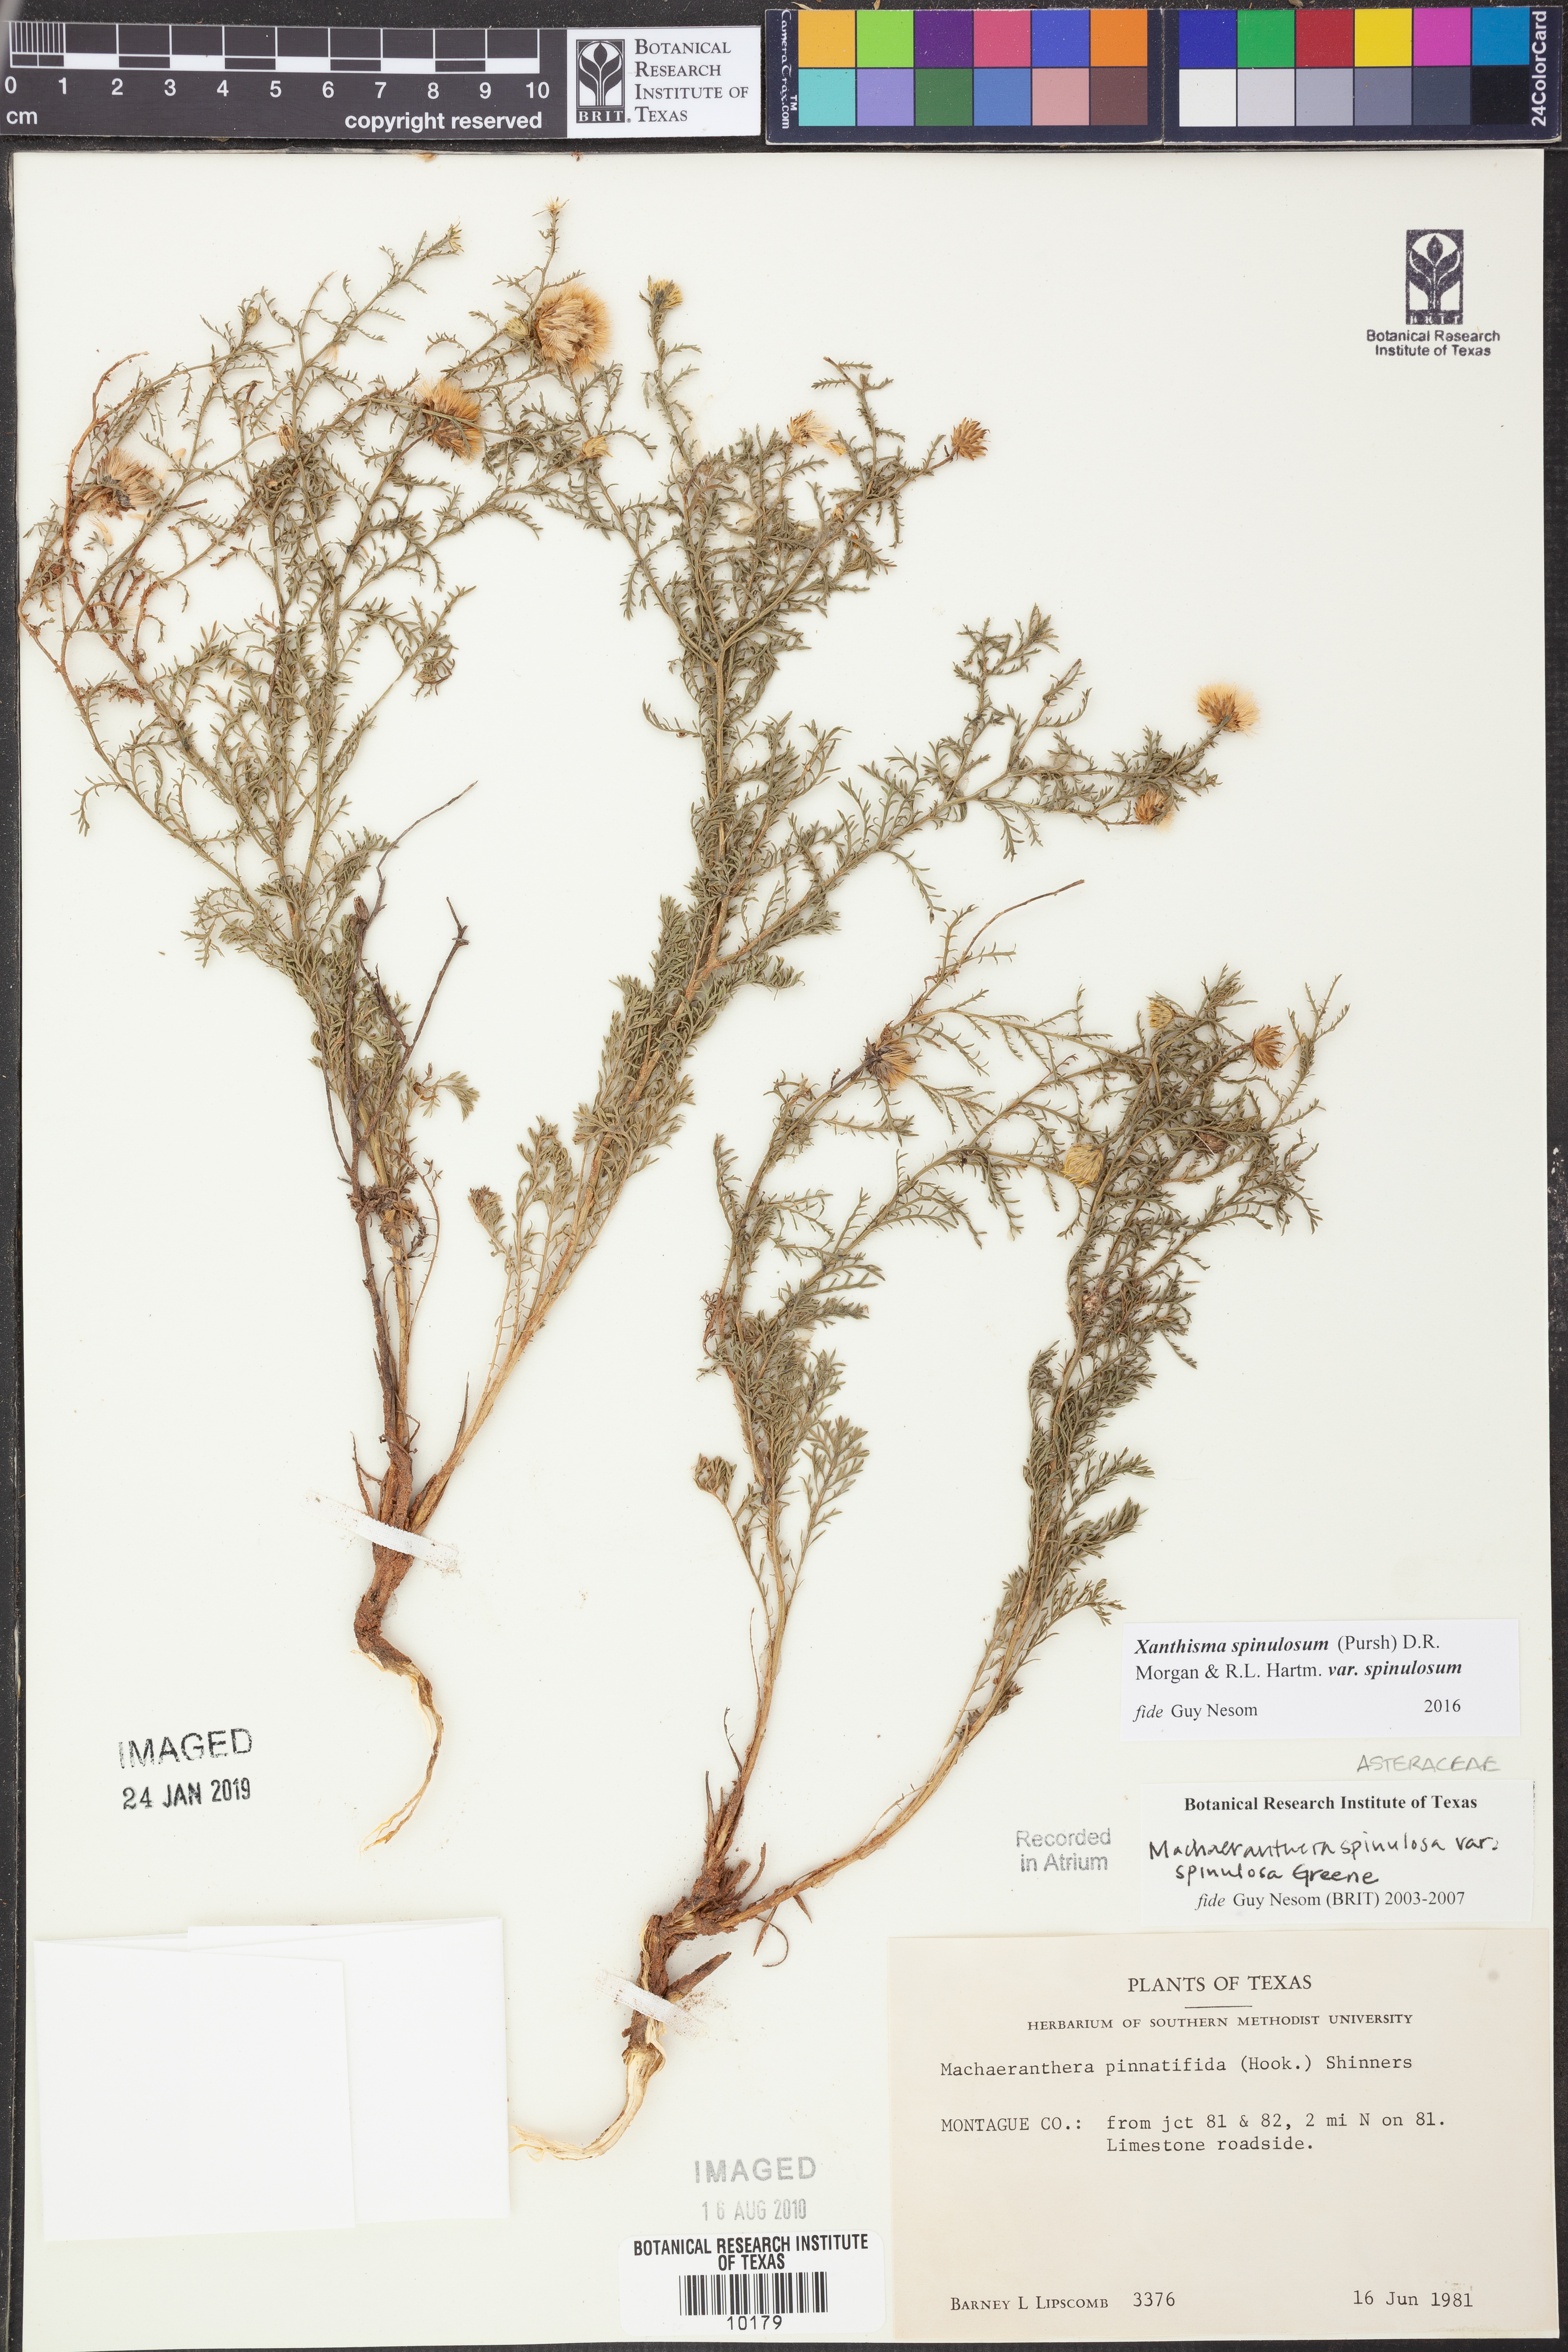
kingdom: Plantae
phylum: Tracheophyta
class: Magnoliopsida
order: Asterales
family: Asteraceae
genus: Dieteria
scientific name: Dieteria canescens
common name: Hoary-aster
